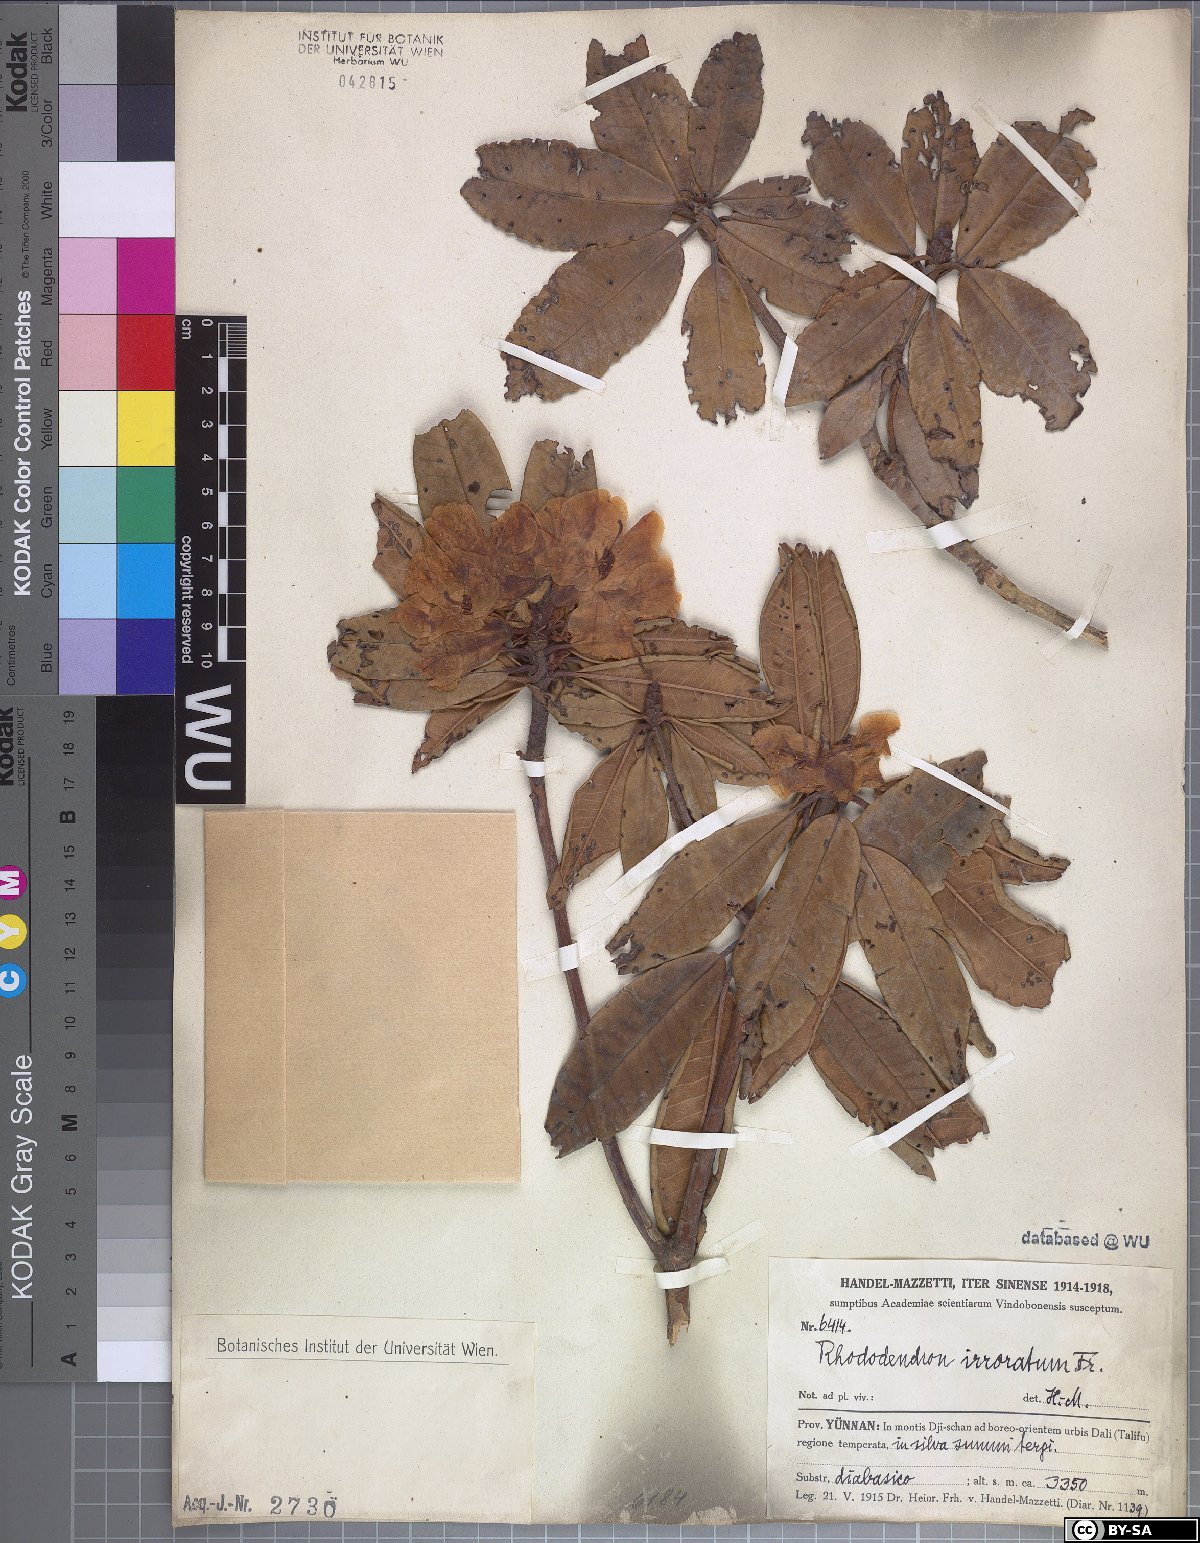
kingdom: Plantae
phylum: Tracheophyta
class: Magnoliopsida
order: Ericales
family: Ericaceae
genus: Rhododendron
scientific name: Rhododendron irroratum
